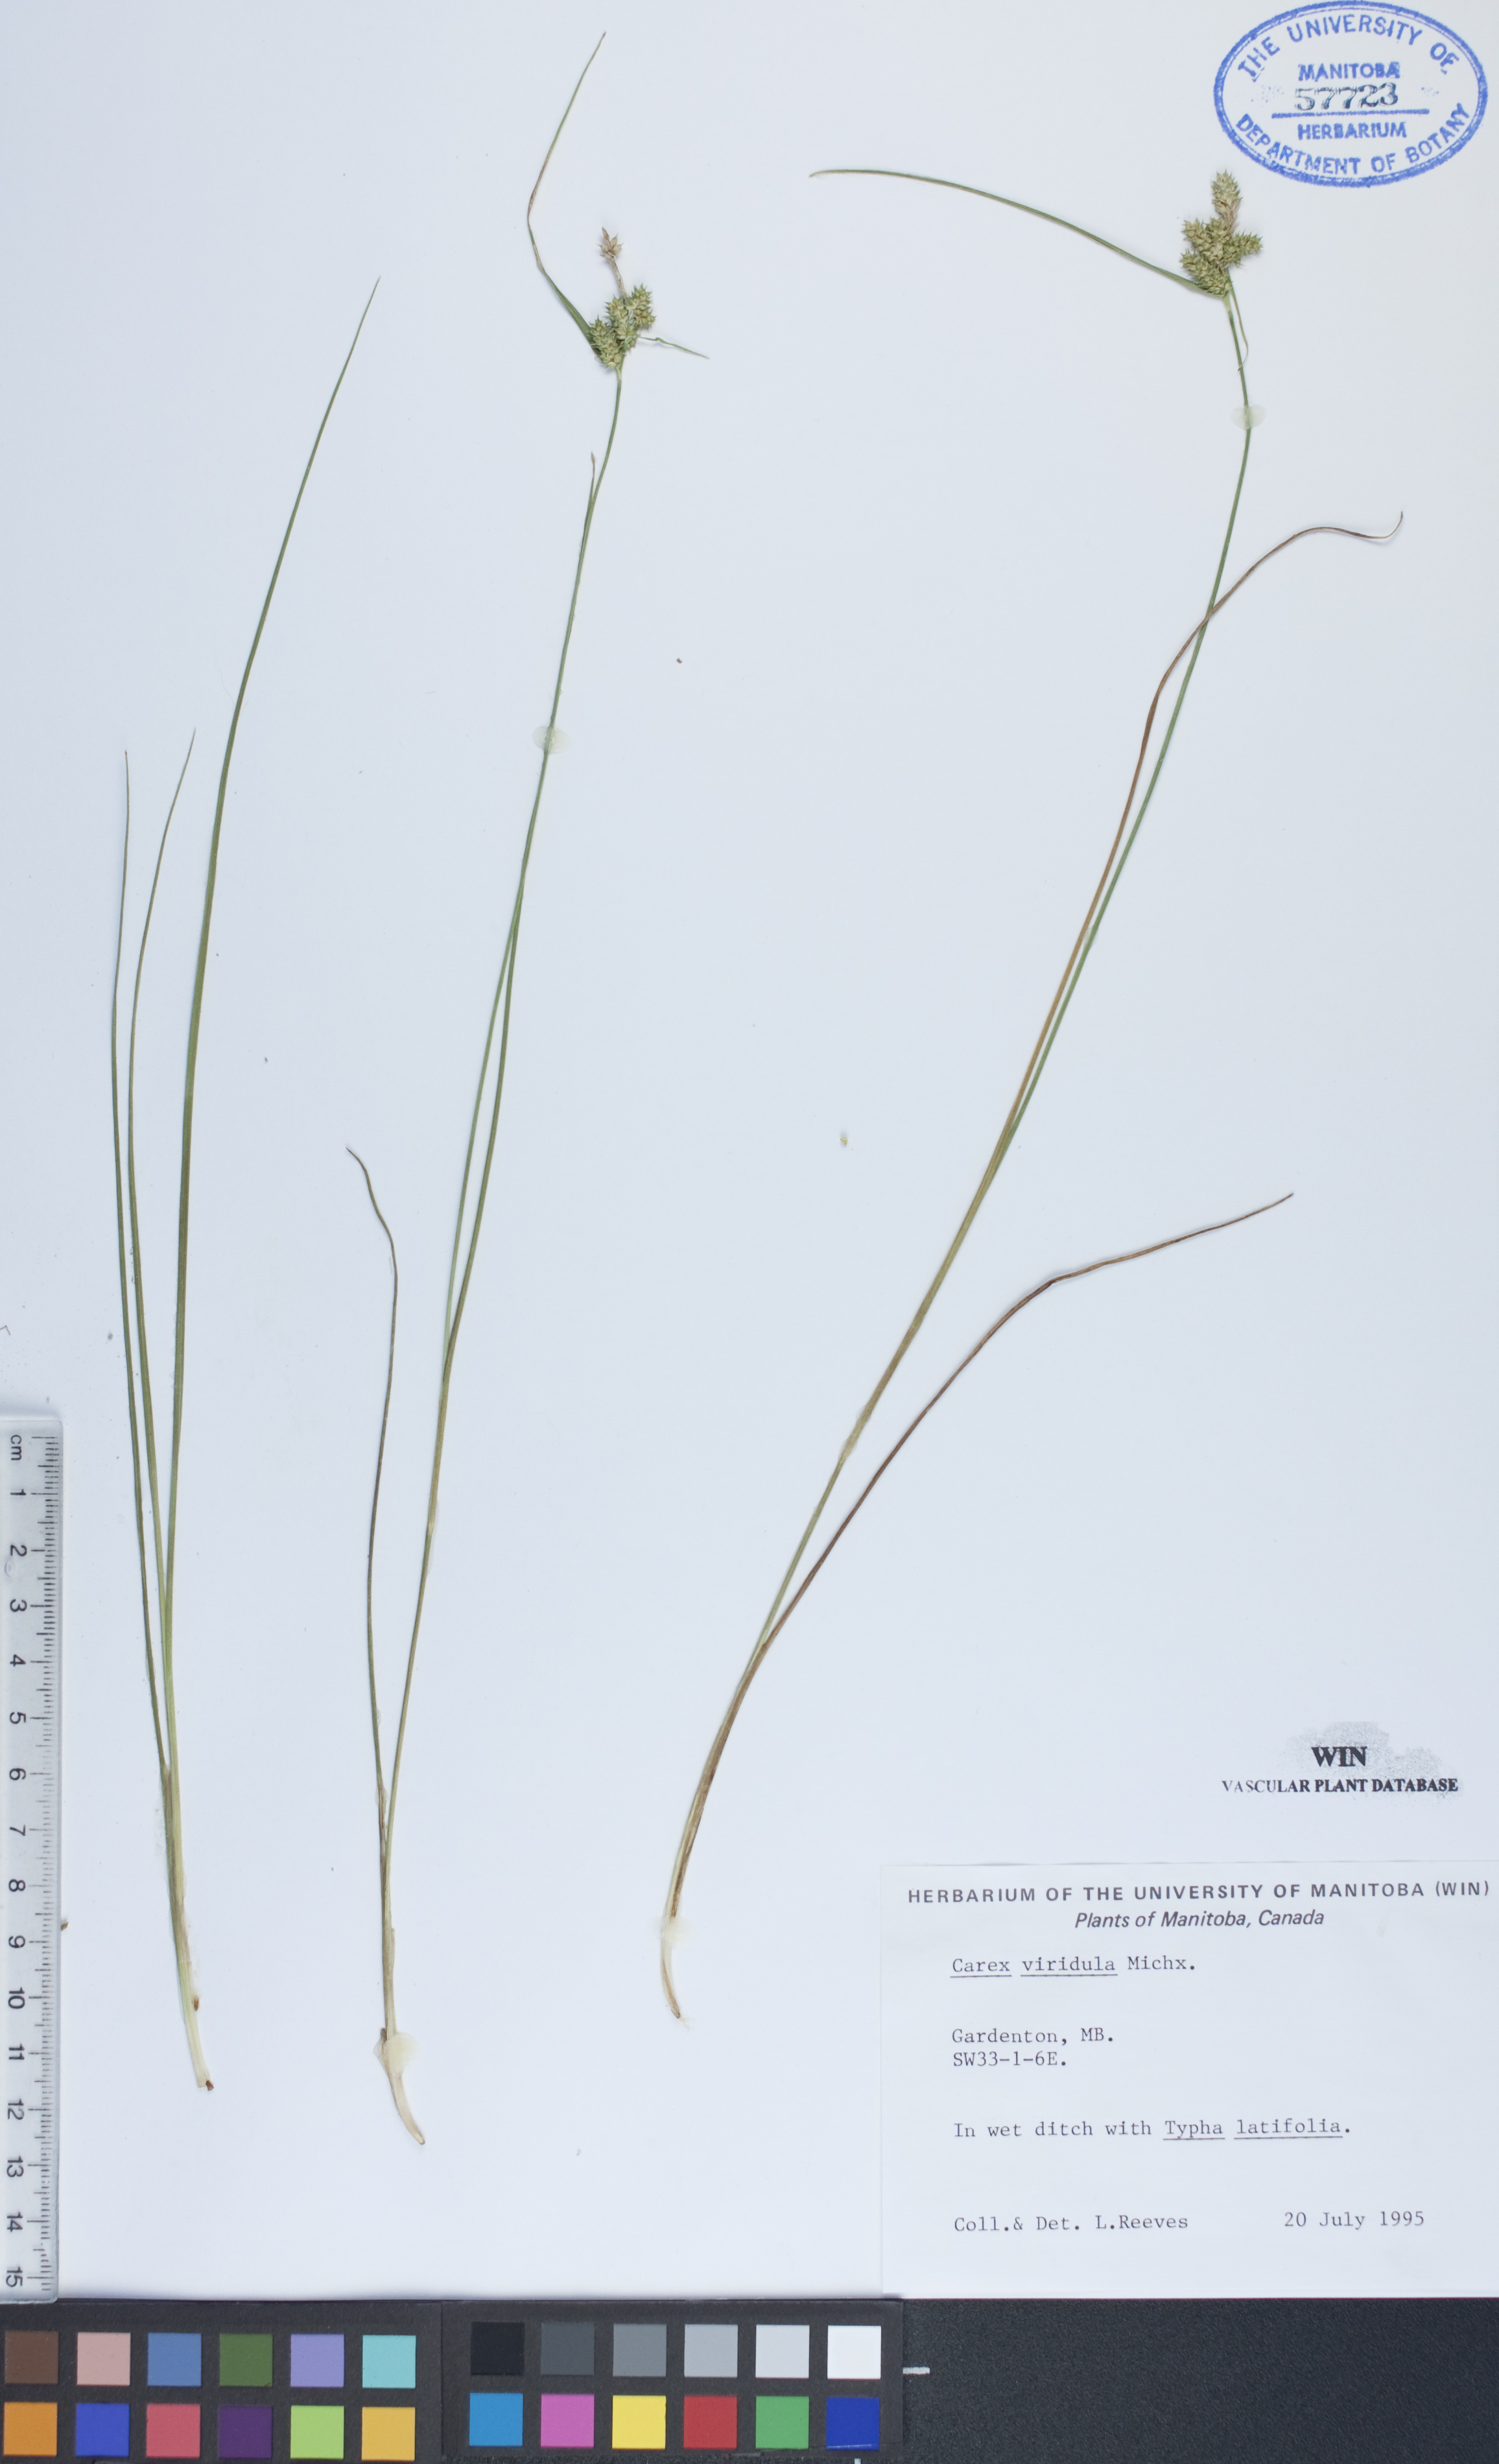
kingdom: Plantae
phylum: Tracheophyta
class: Liliopsida
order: Poales
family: Cyperaceae
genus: Carex
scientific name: Carex oederi
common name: Common & small-fruited yellow-sedge
